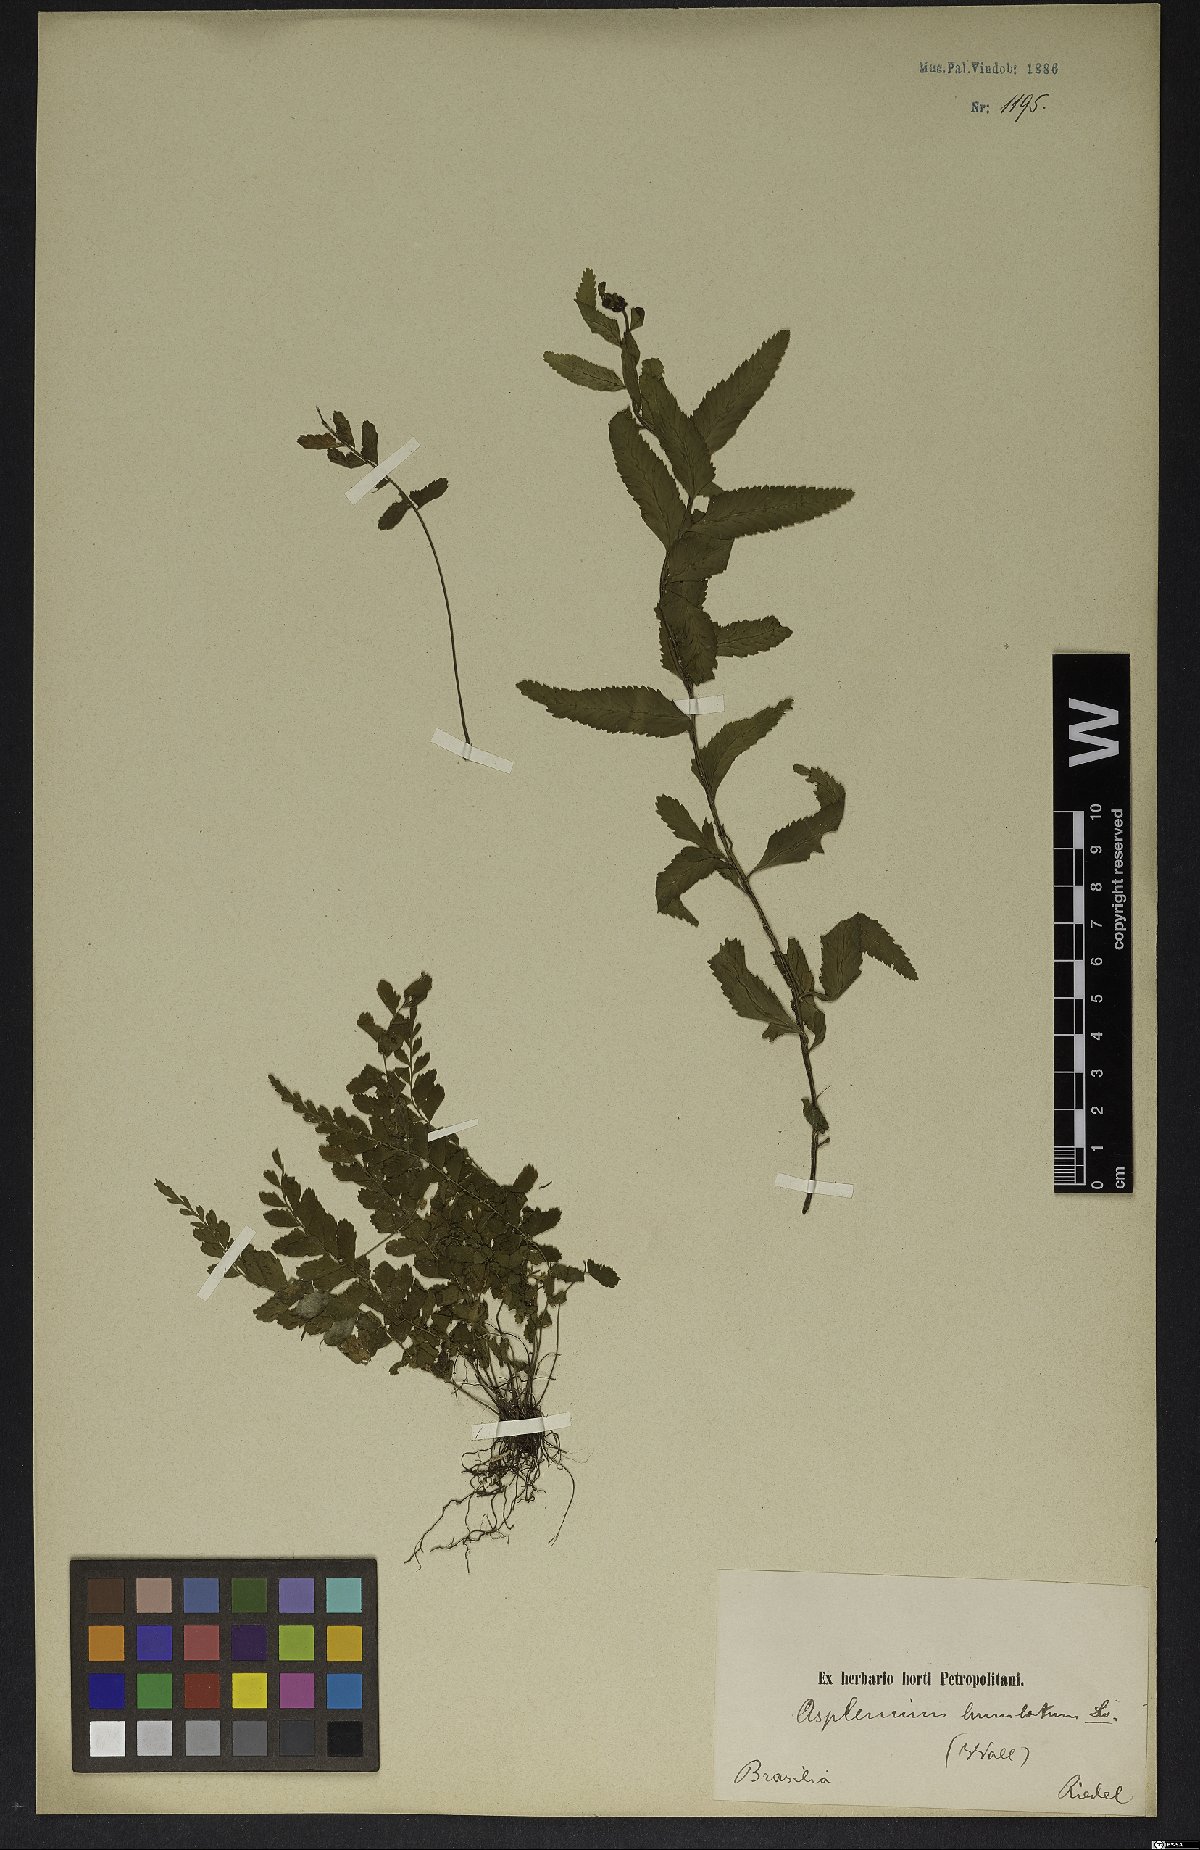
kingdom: Plantae
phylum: Tracheophyta
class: Polypodiopsida
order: Polypodiales
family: Aspleniaceae
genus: Asplenium
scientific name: Asplenium lunulatum
